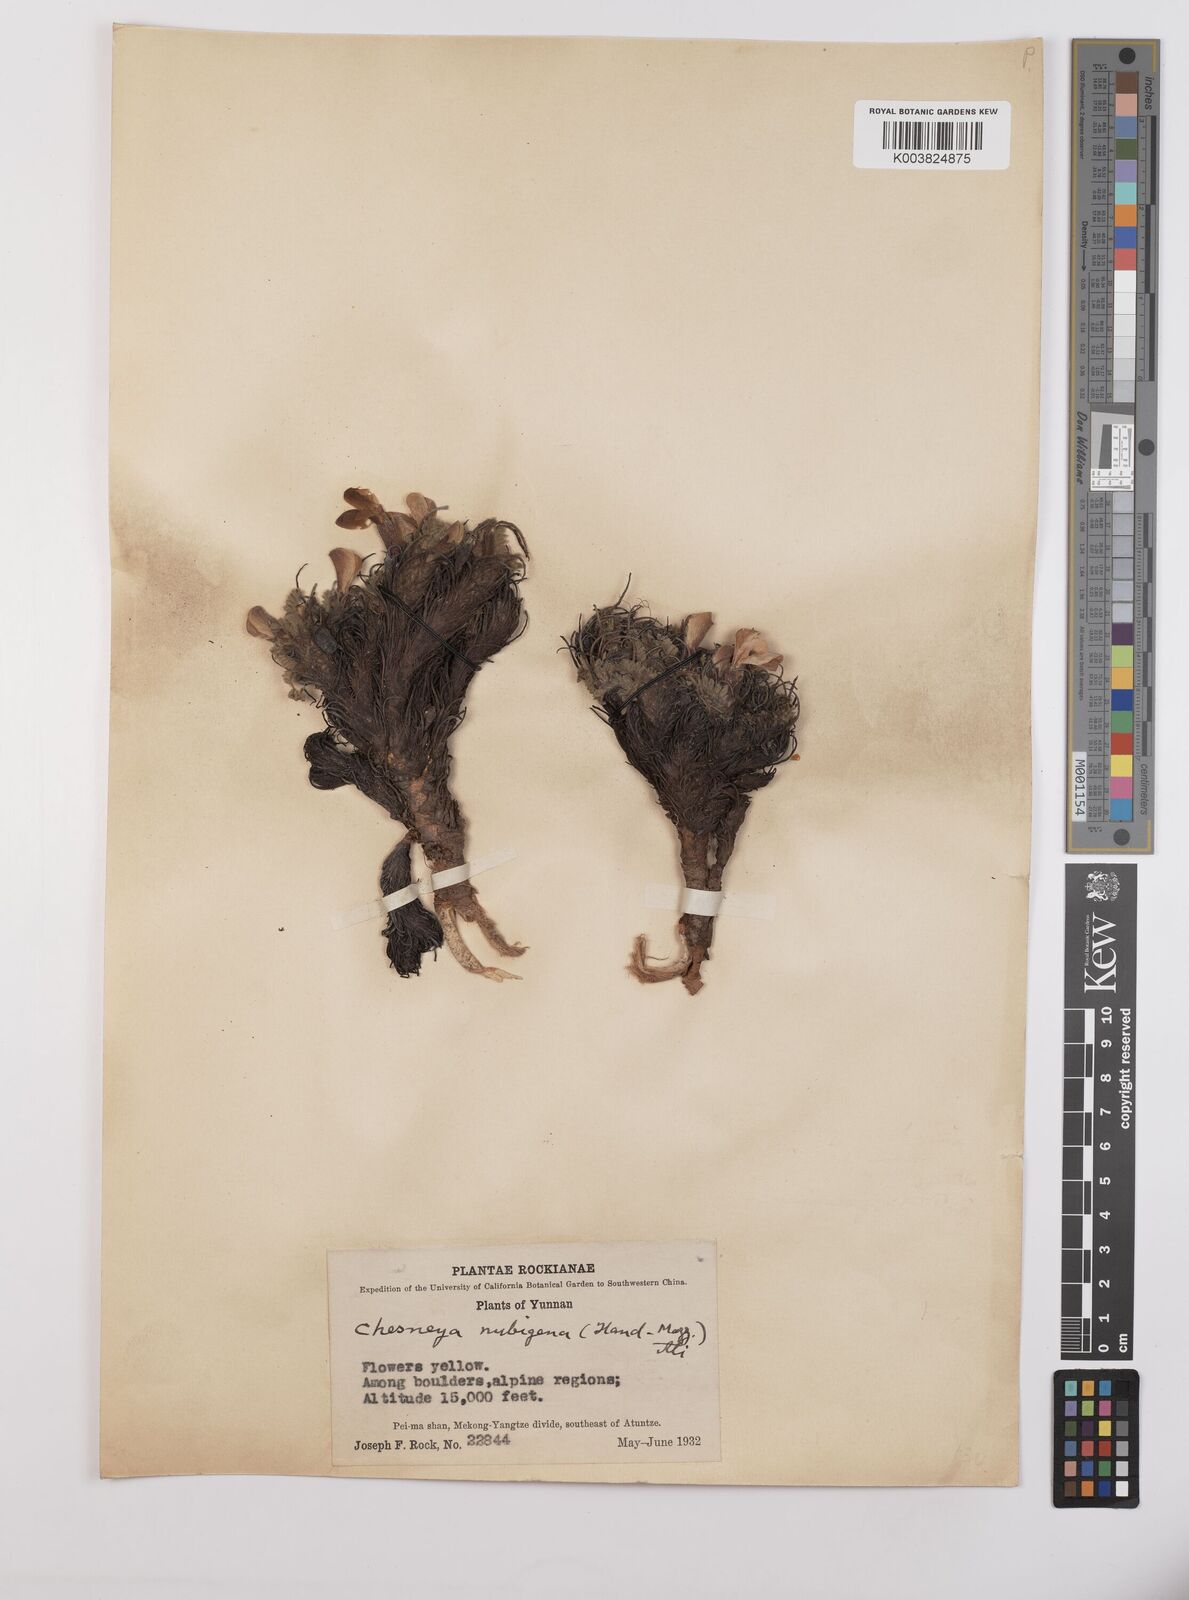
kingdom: Plantae
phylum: Tracheophyta
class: Magnoliopsida
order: Fabales
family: Fabaceae
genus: Chesneya
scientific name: Chesneya nubigena
